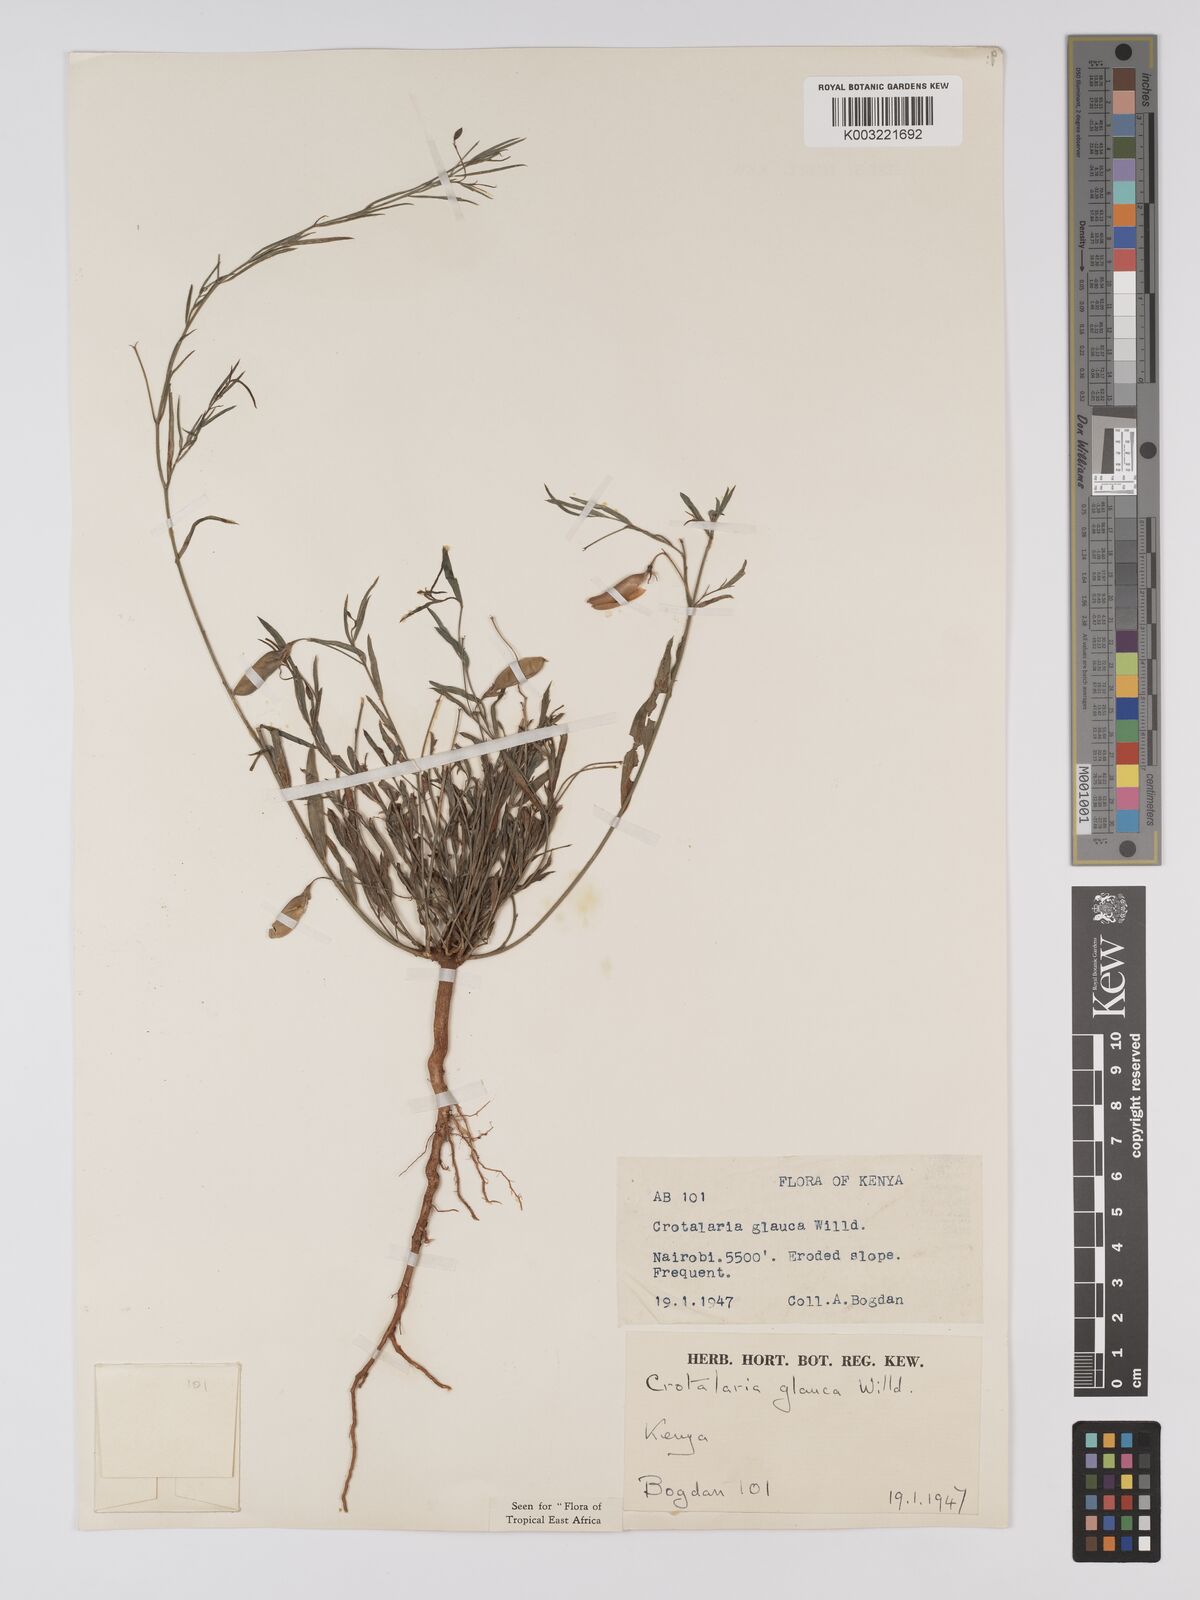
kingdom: Plantae
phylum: Tracheophyta
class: Magnoliopsida
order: Fabales
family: Fabaceae
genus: Crotalaria
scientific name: Crotalaria glauca
